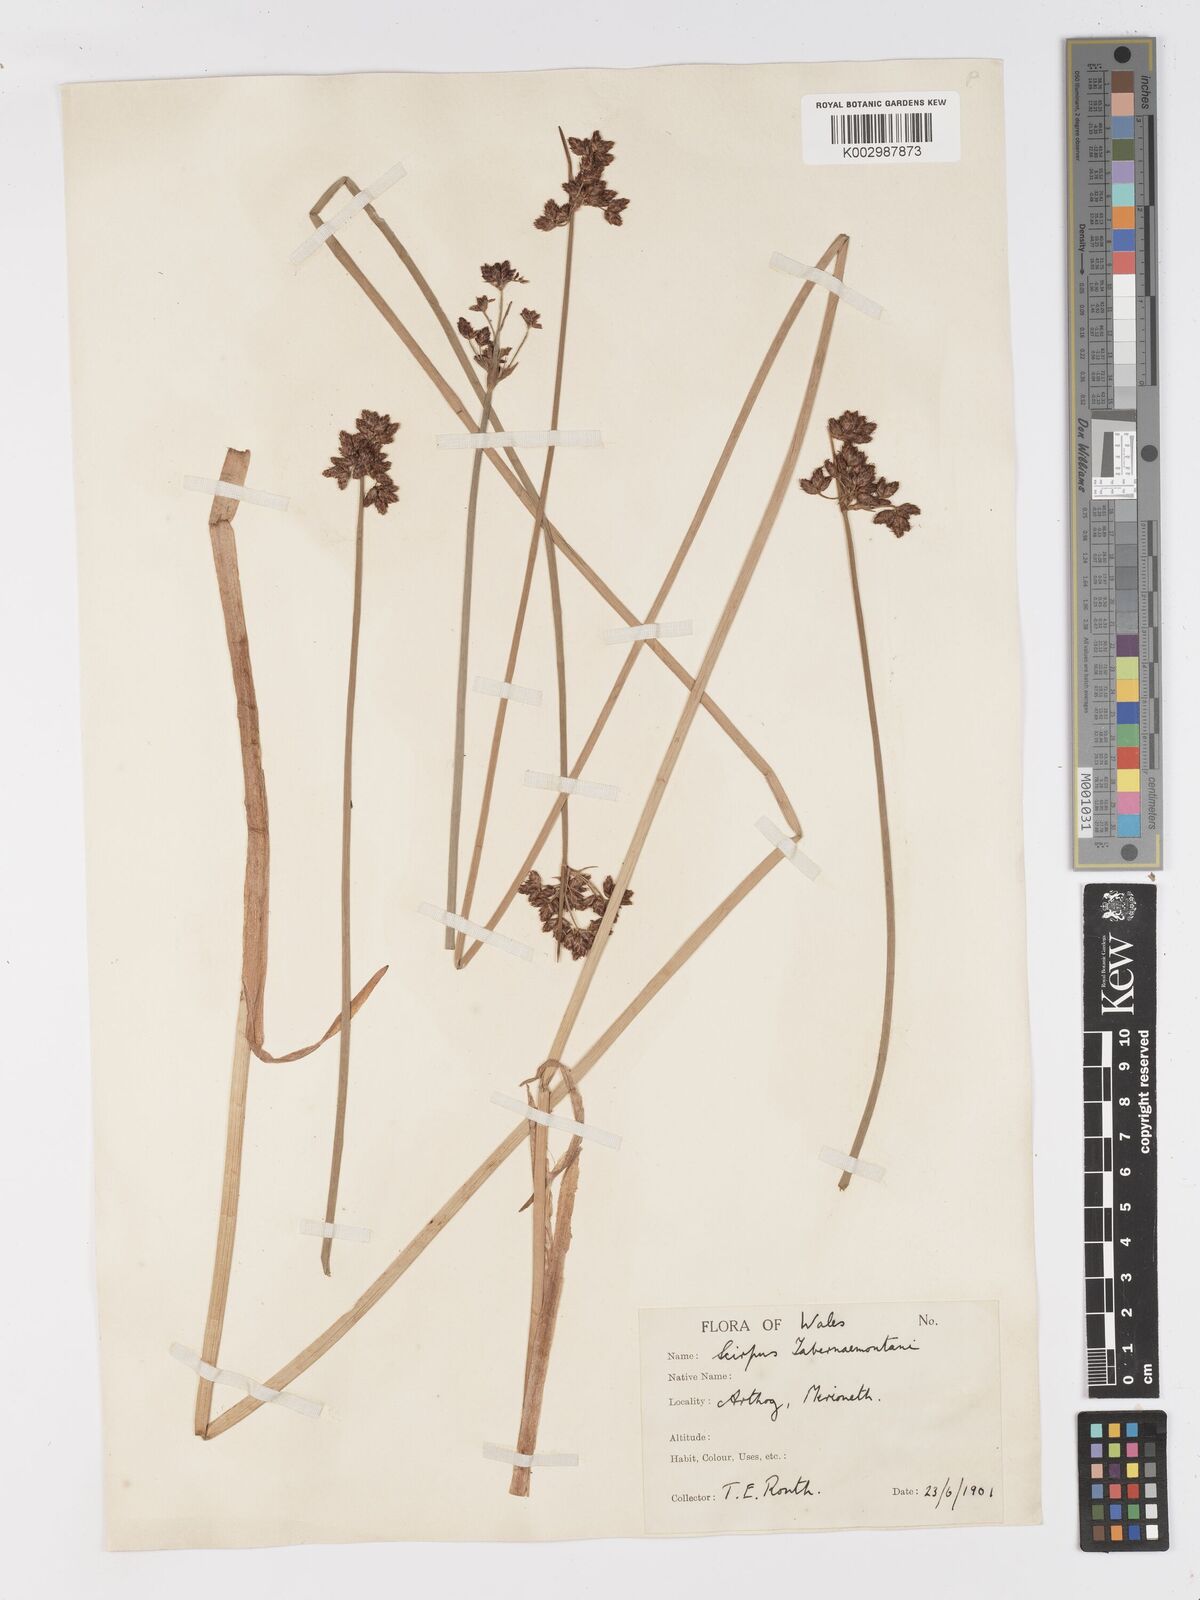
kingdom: Plantae
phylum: Tracheophyta
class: Liliopsida
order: Poales
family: Cyperaceae
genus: Schoenoplectus
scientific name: Schoenoplectus tabernaemontani
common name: Grey club-rush
